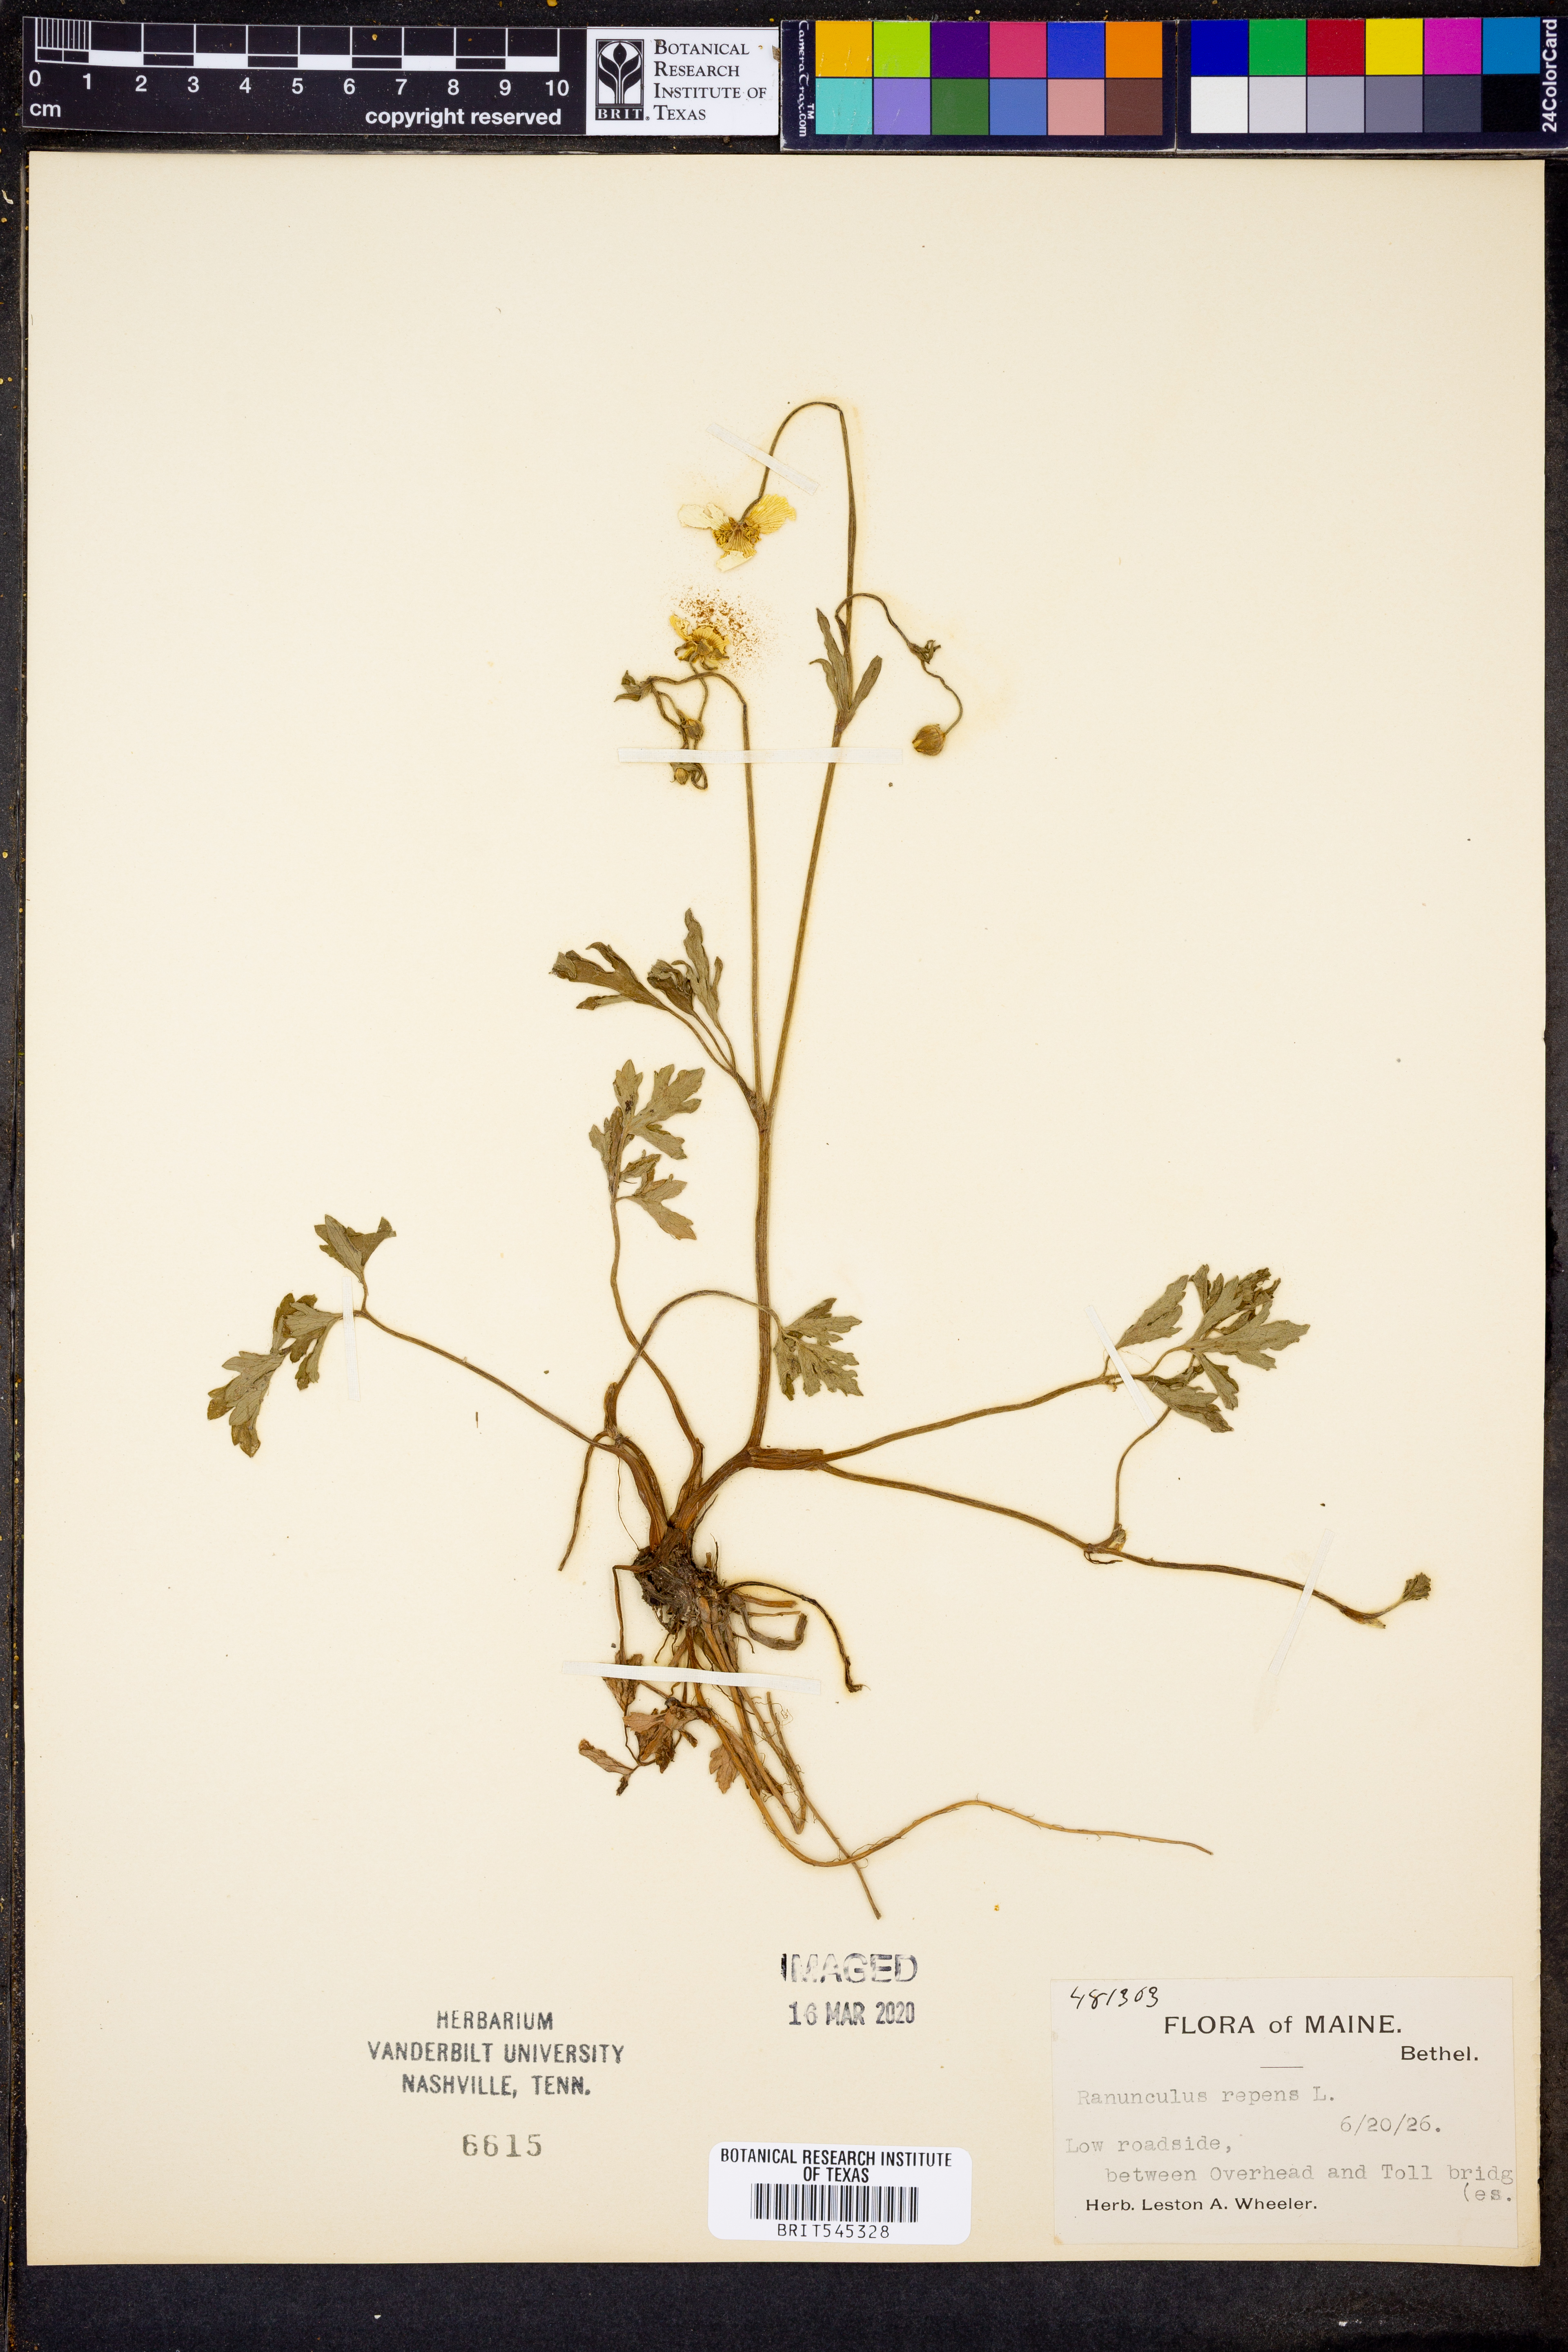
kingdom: Plantae
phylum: Tracheophyta
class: Magnoliopsida
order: Ranunculales
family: Ranunculaceae
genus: Ranunculus
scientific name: Ranunculus repens
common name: Creeping buttercup
